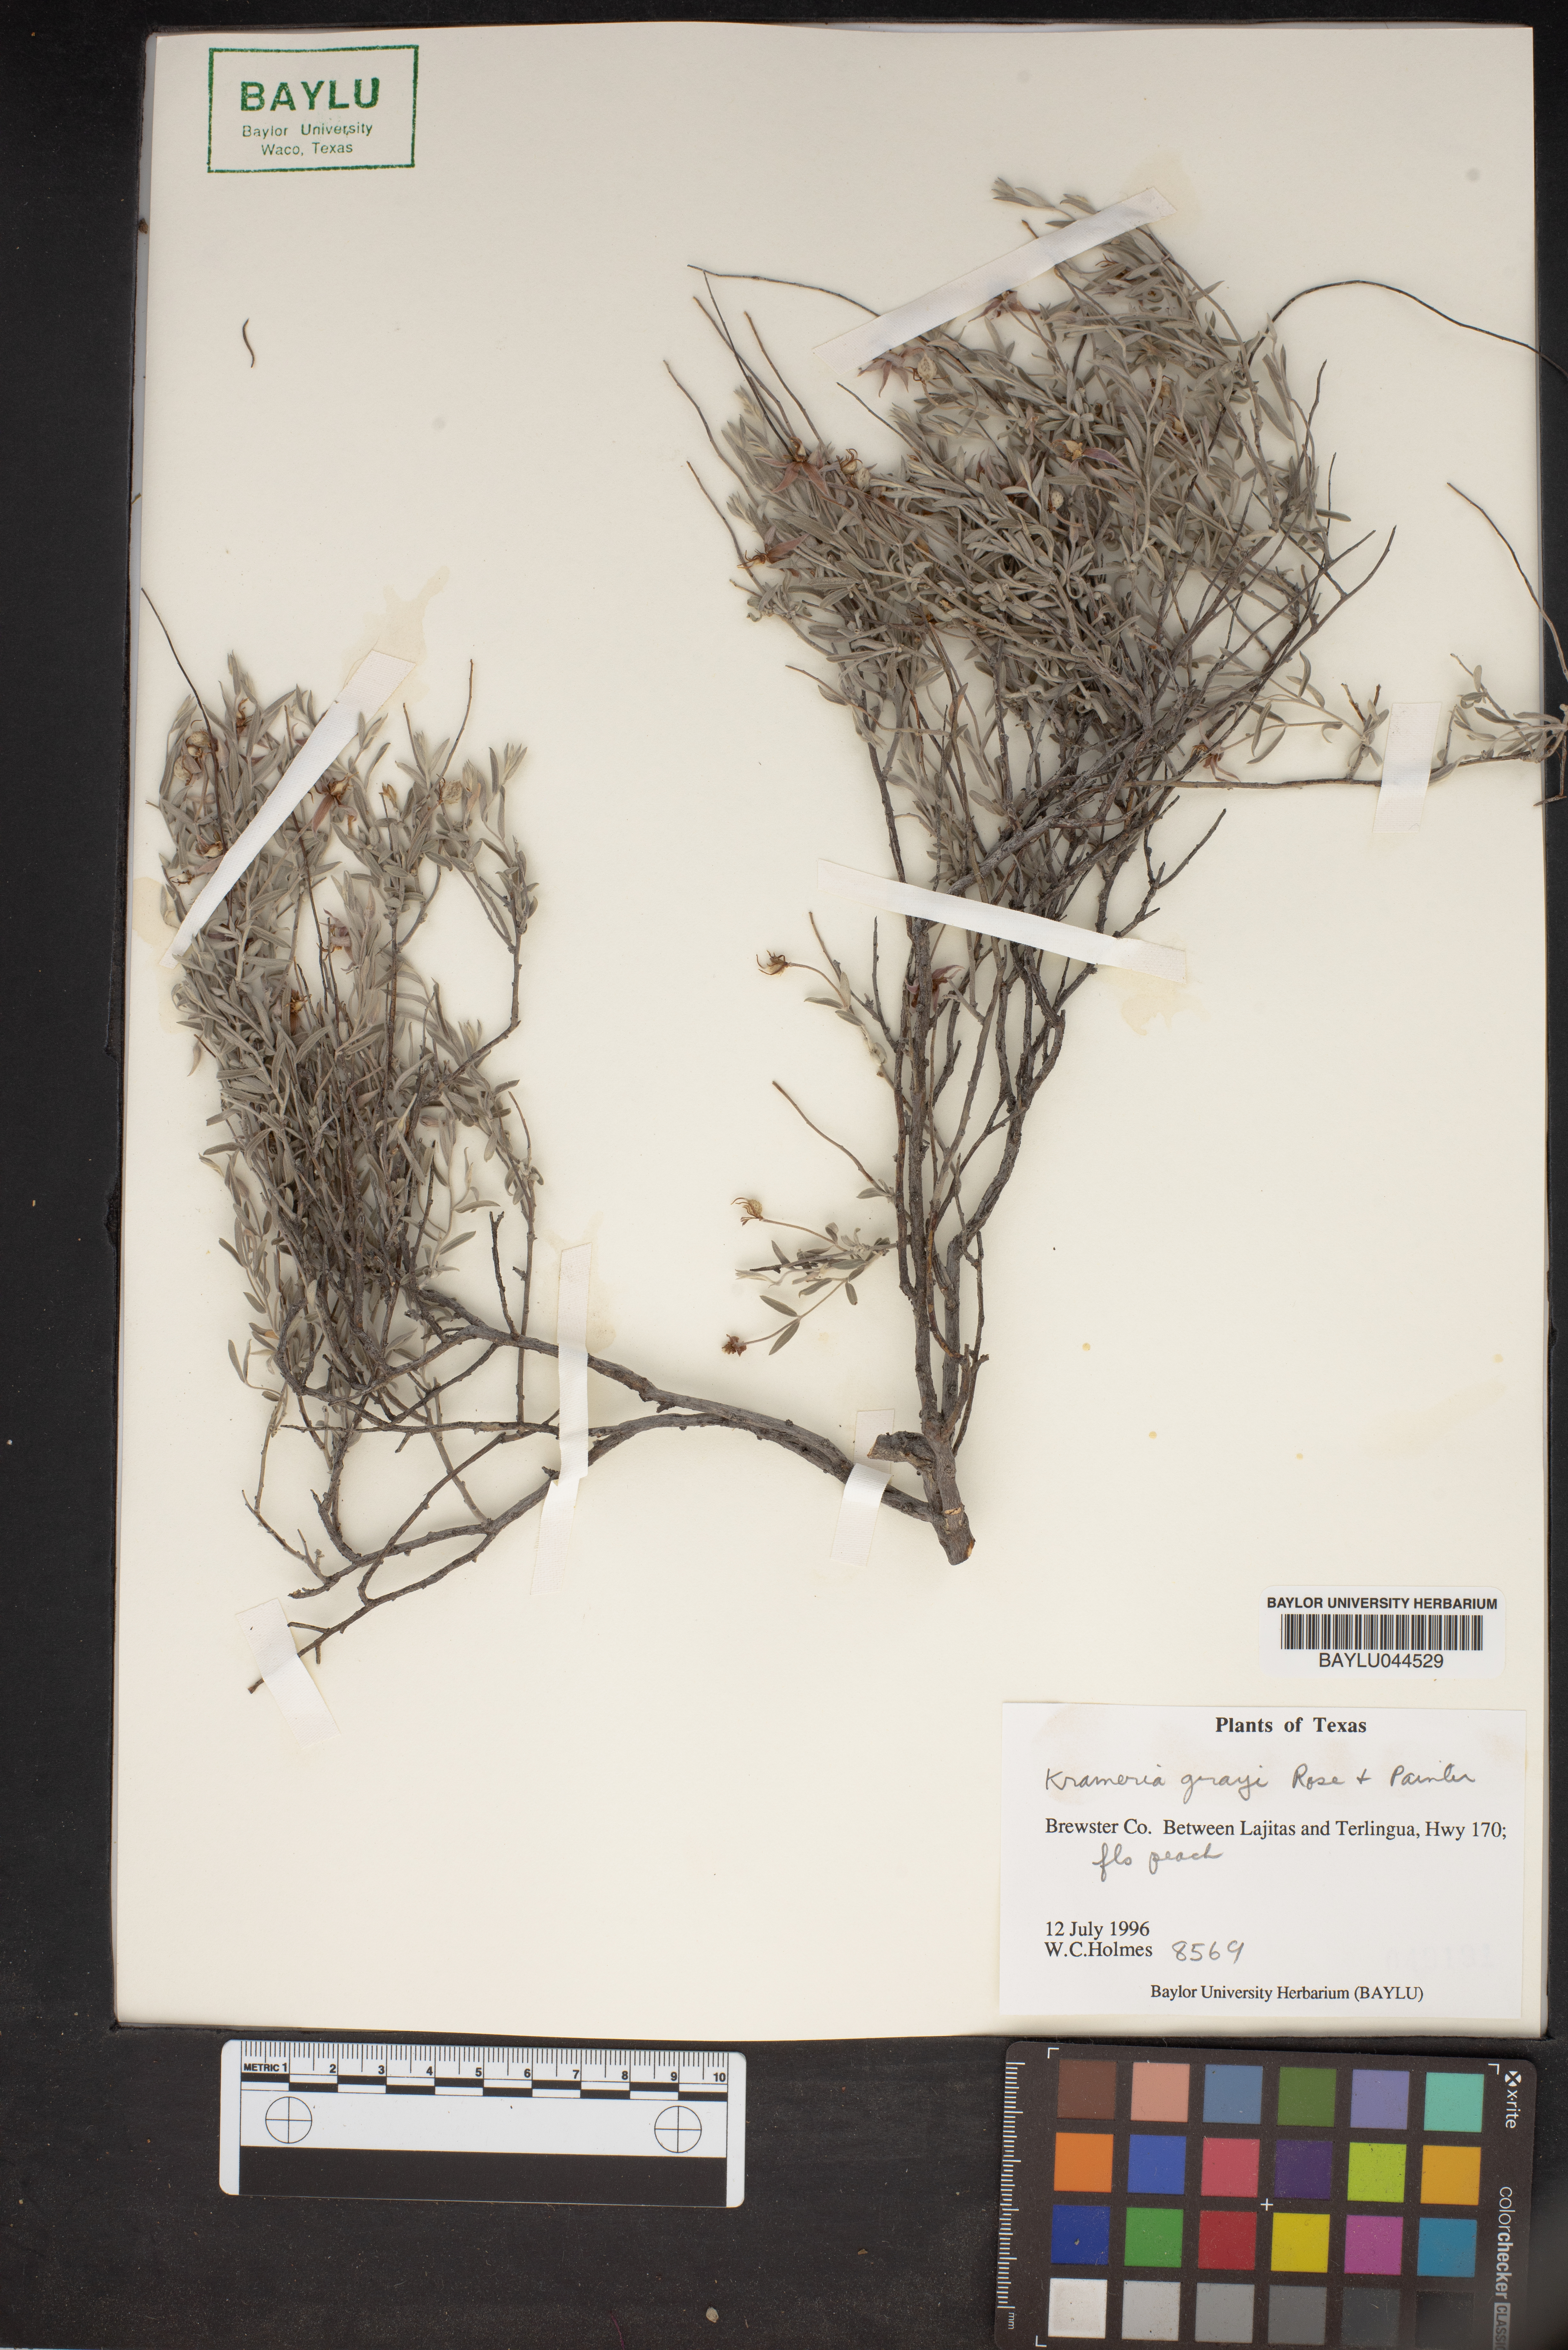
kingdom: Plantae
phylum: Tracheophyta
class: Magnoliopsida
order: Zygophyllales
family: Krameriaceae
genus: Krameria
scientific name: Krameria bicolor
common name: White ratany
